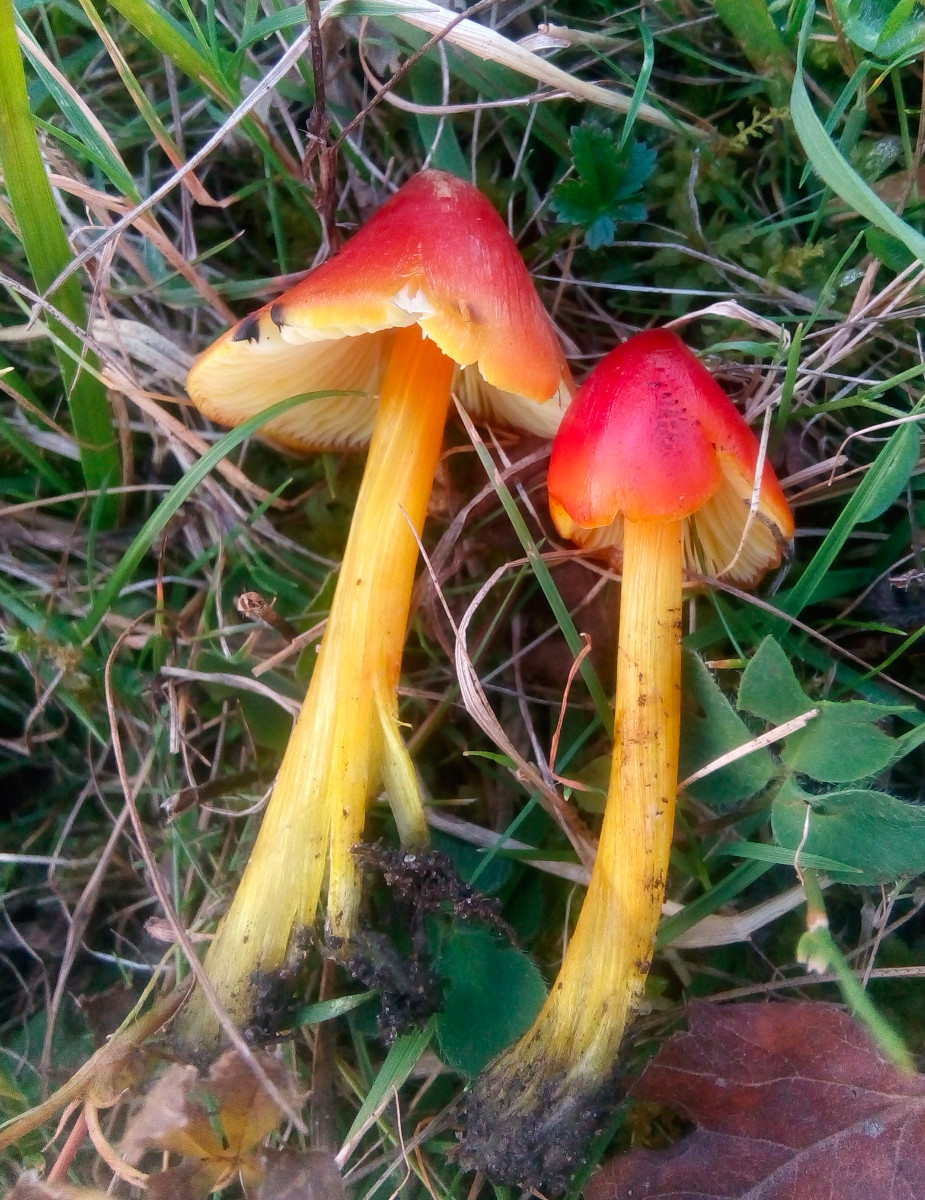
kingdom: Fungi
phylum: Basidiomycota
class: Agaricomycetes
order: Agaricales
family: Hygrophoraceae
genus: Hygrocybe
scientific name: Hygrocybe conica
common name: kegle-vokshat
